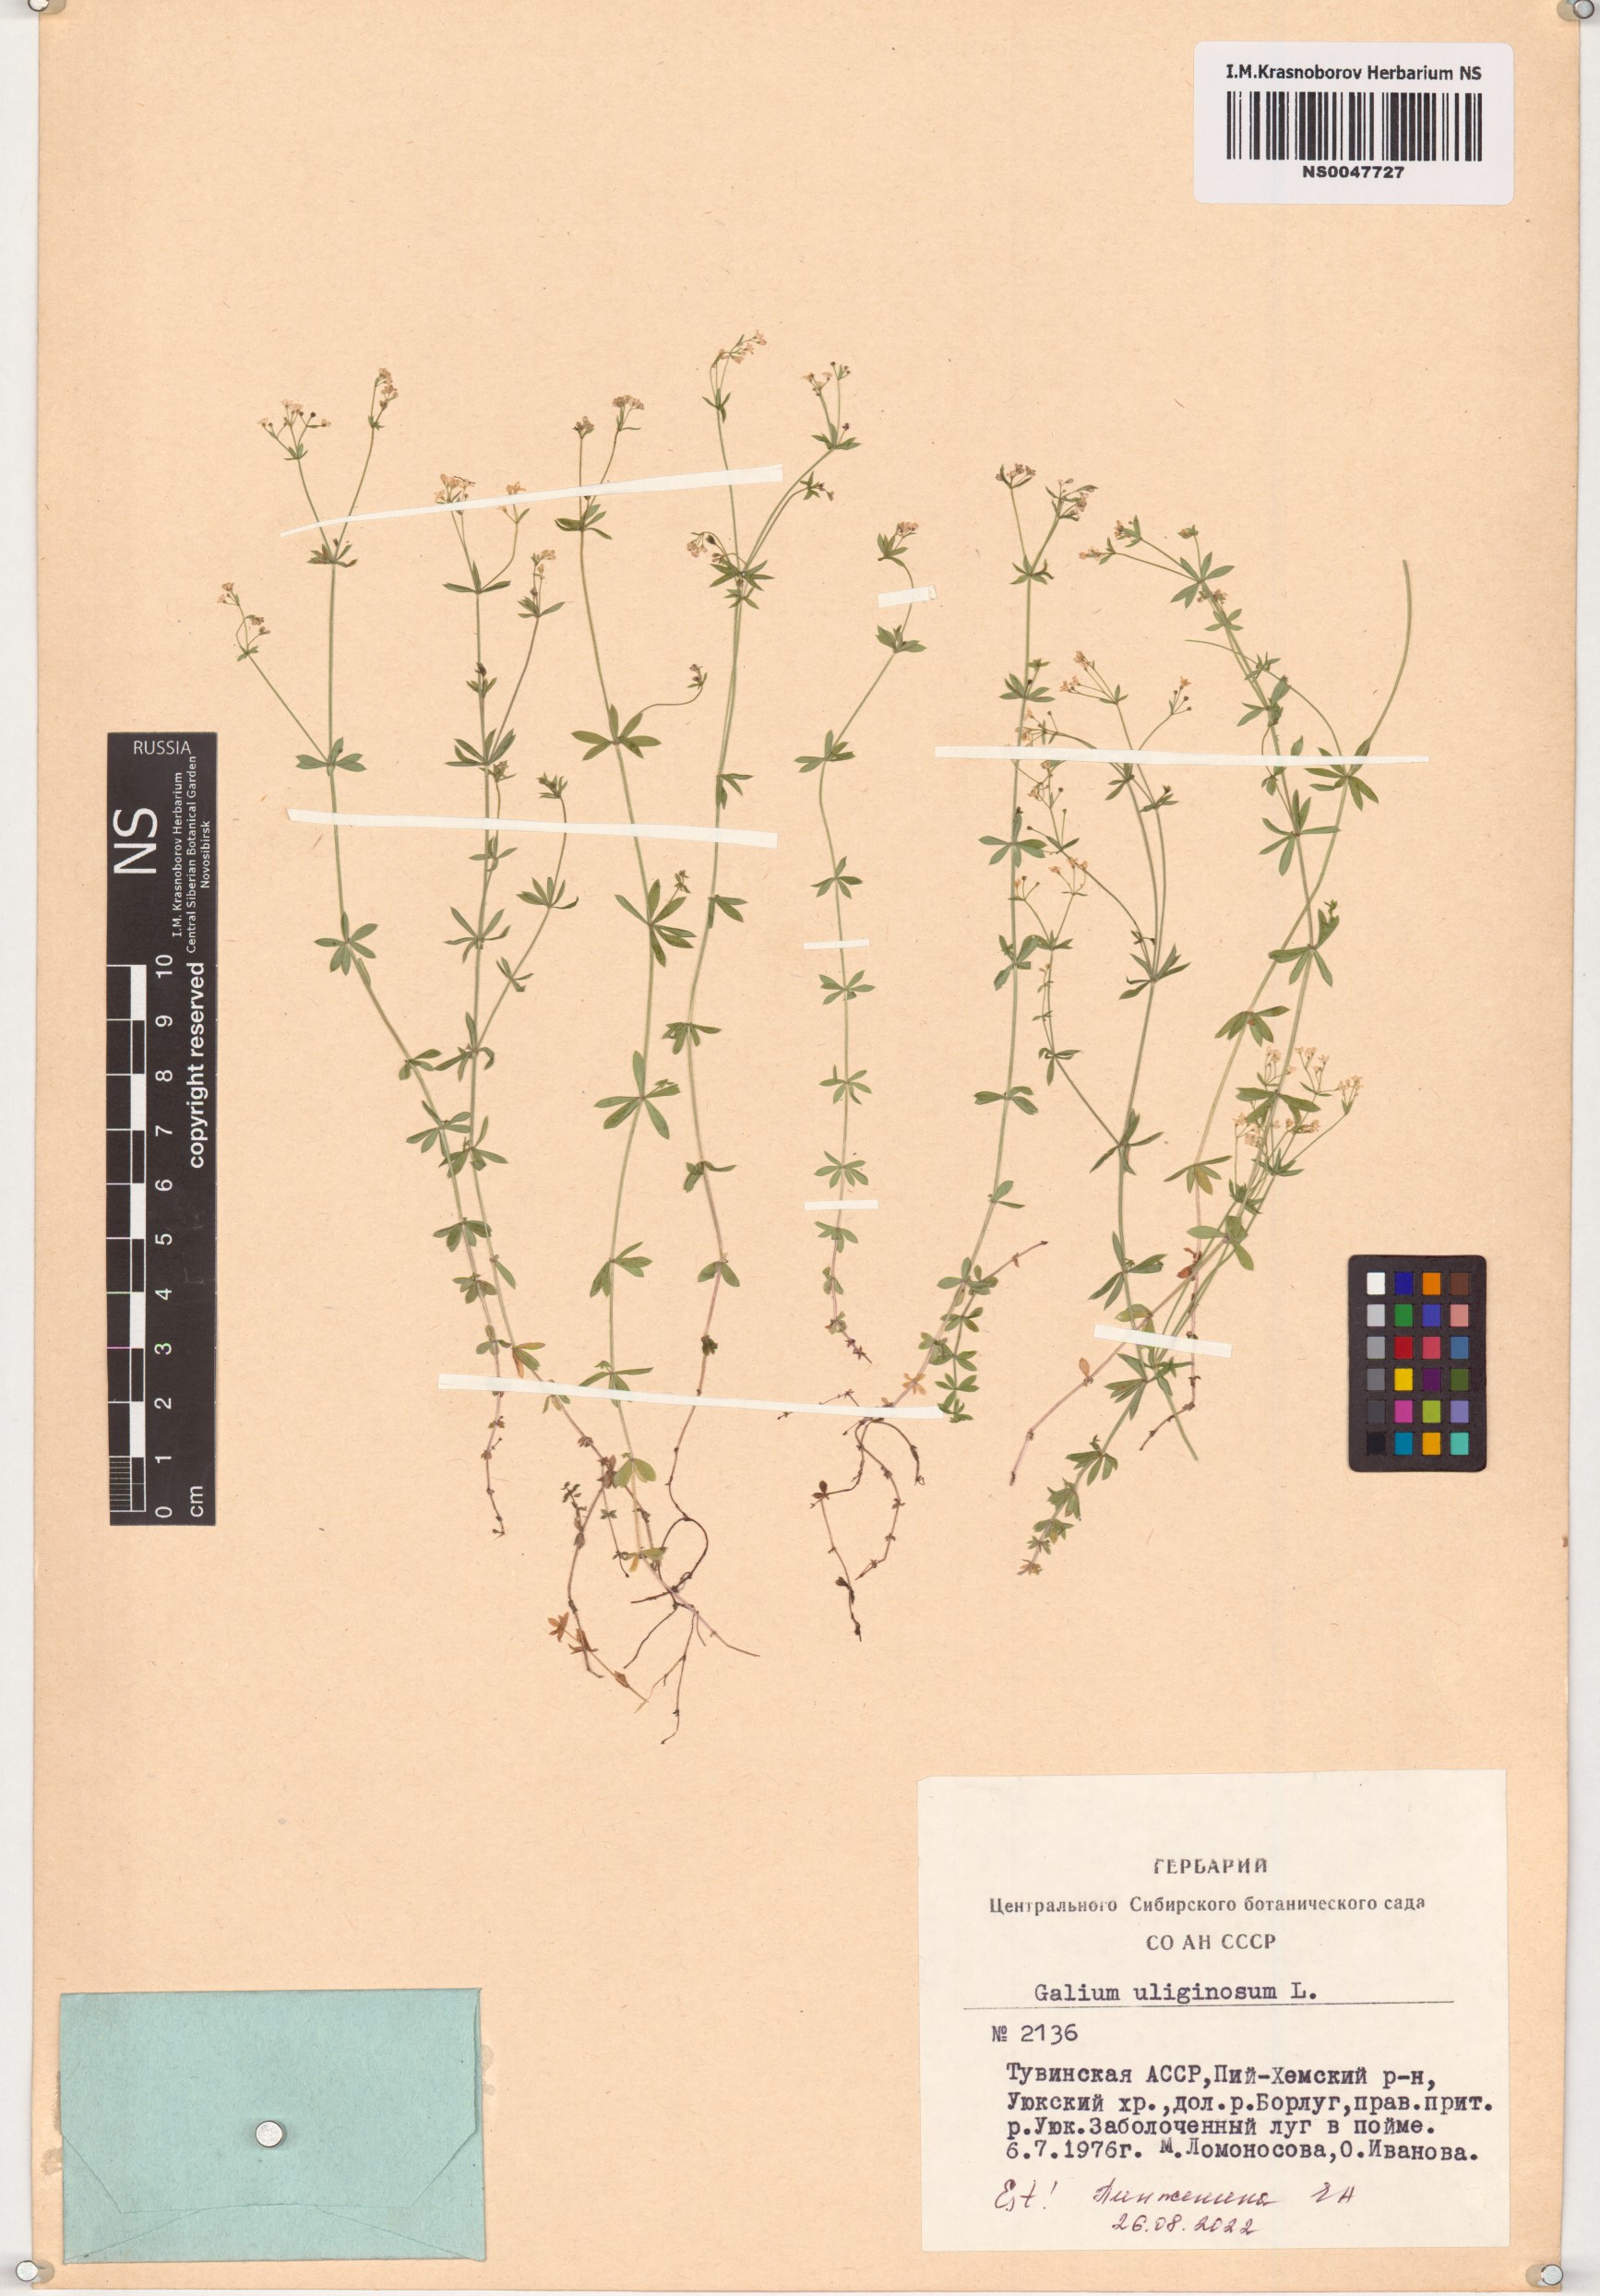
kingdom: Plantae
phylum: Tracheophyta
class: Magnoliopsida
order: Gentianales
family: Rubiaceae
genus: Galium
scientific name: Galium uliginosum
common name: Fen bedstraw
